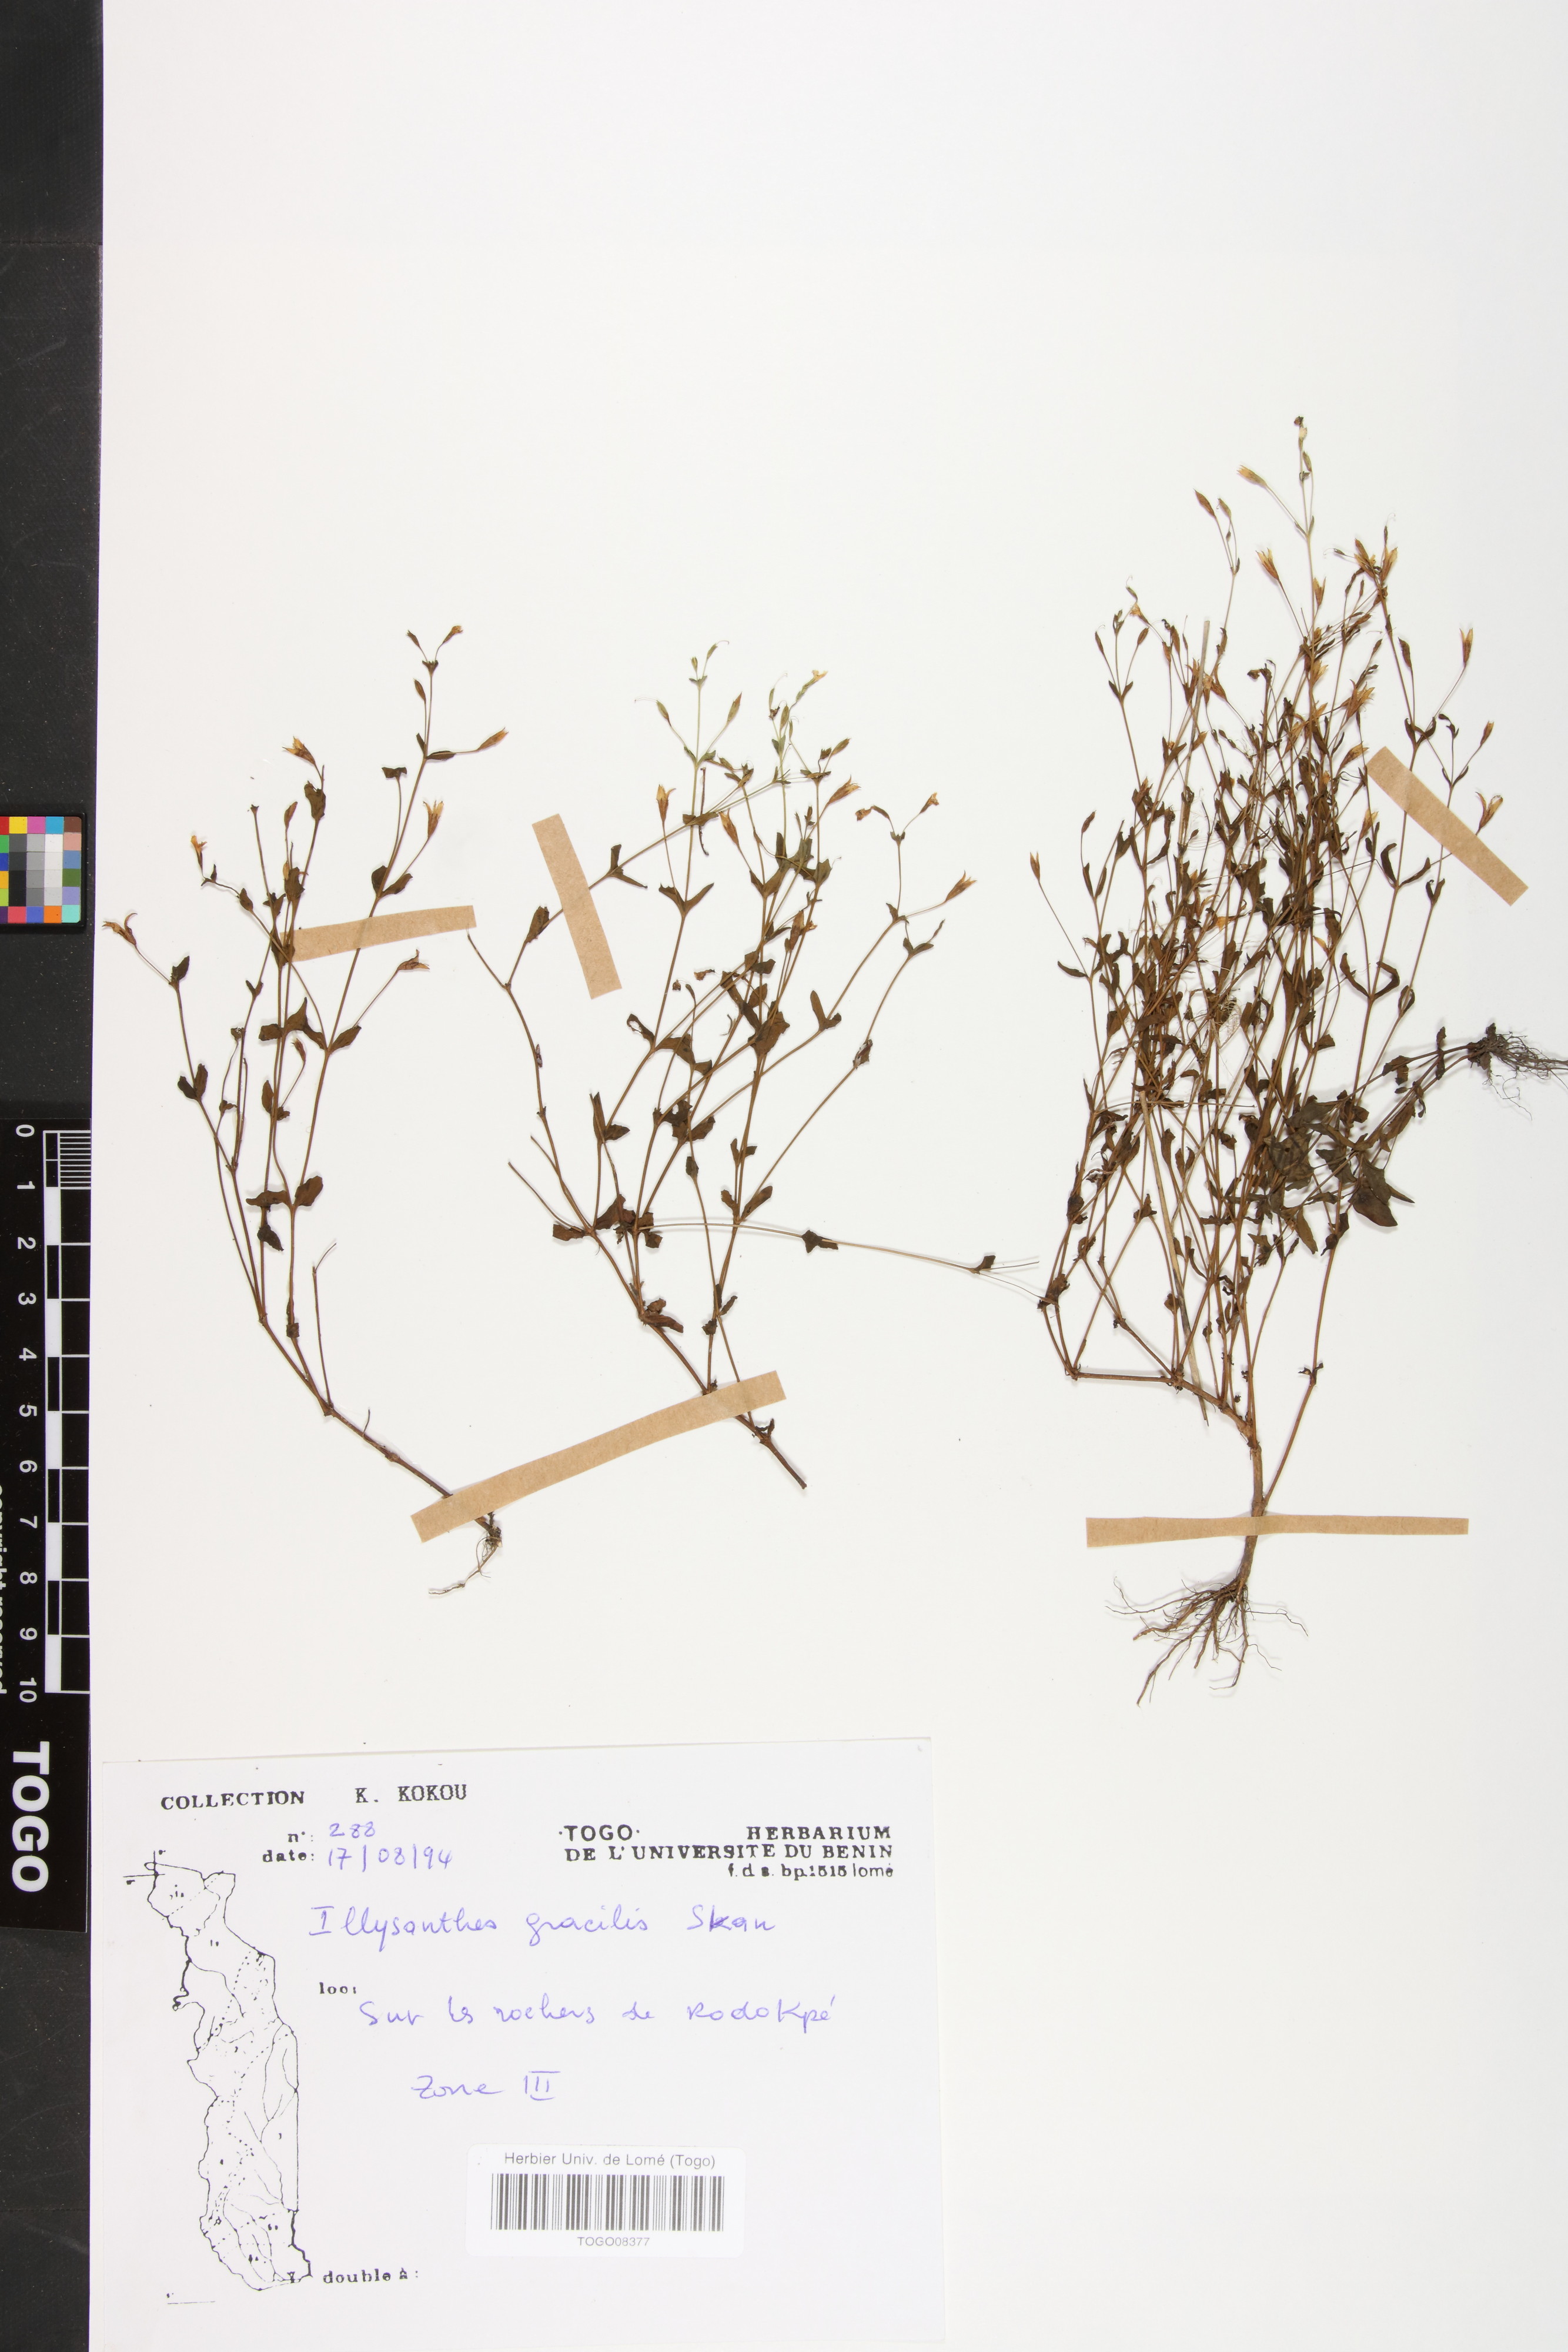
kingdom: Plantae
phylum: Tracheophyta
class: Magnoliopsida
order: Lamiales
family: Orobanchaceae
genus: Striga
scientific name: Striga
